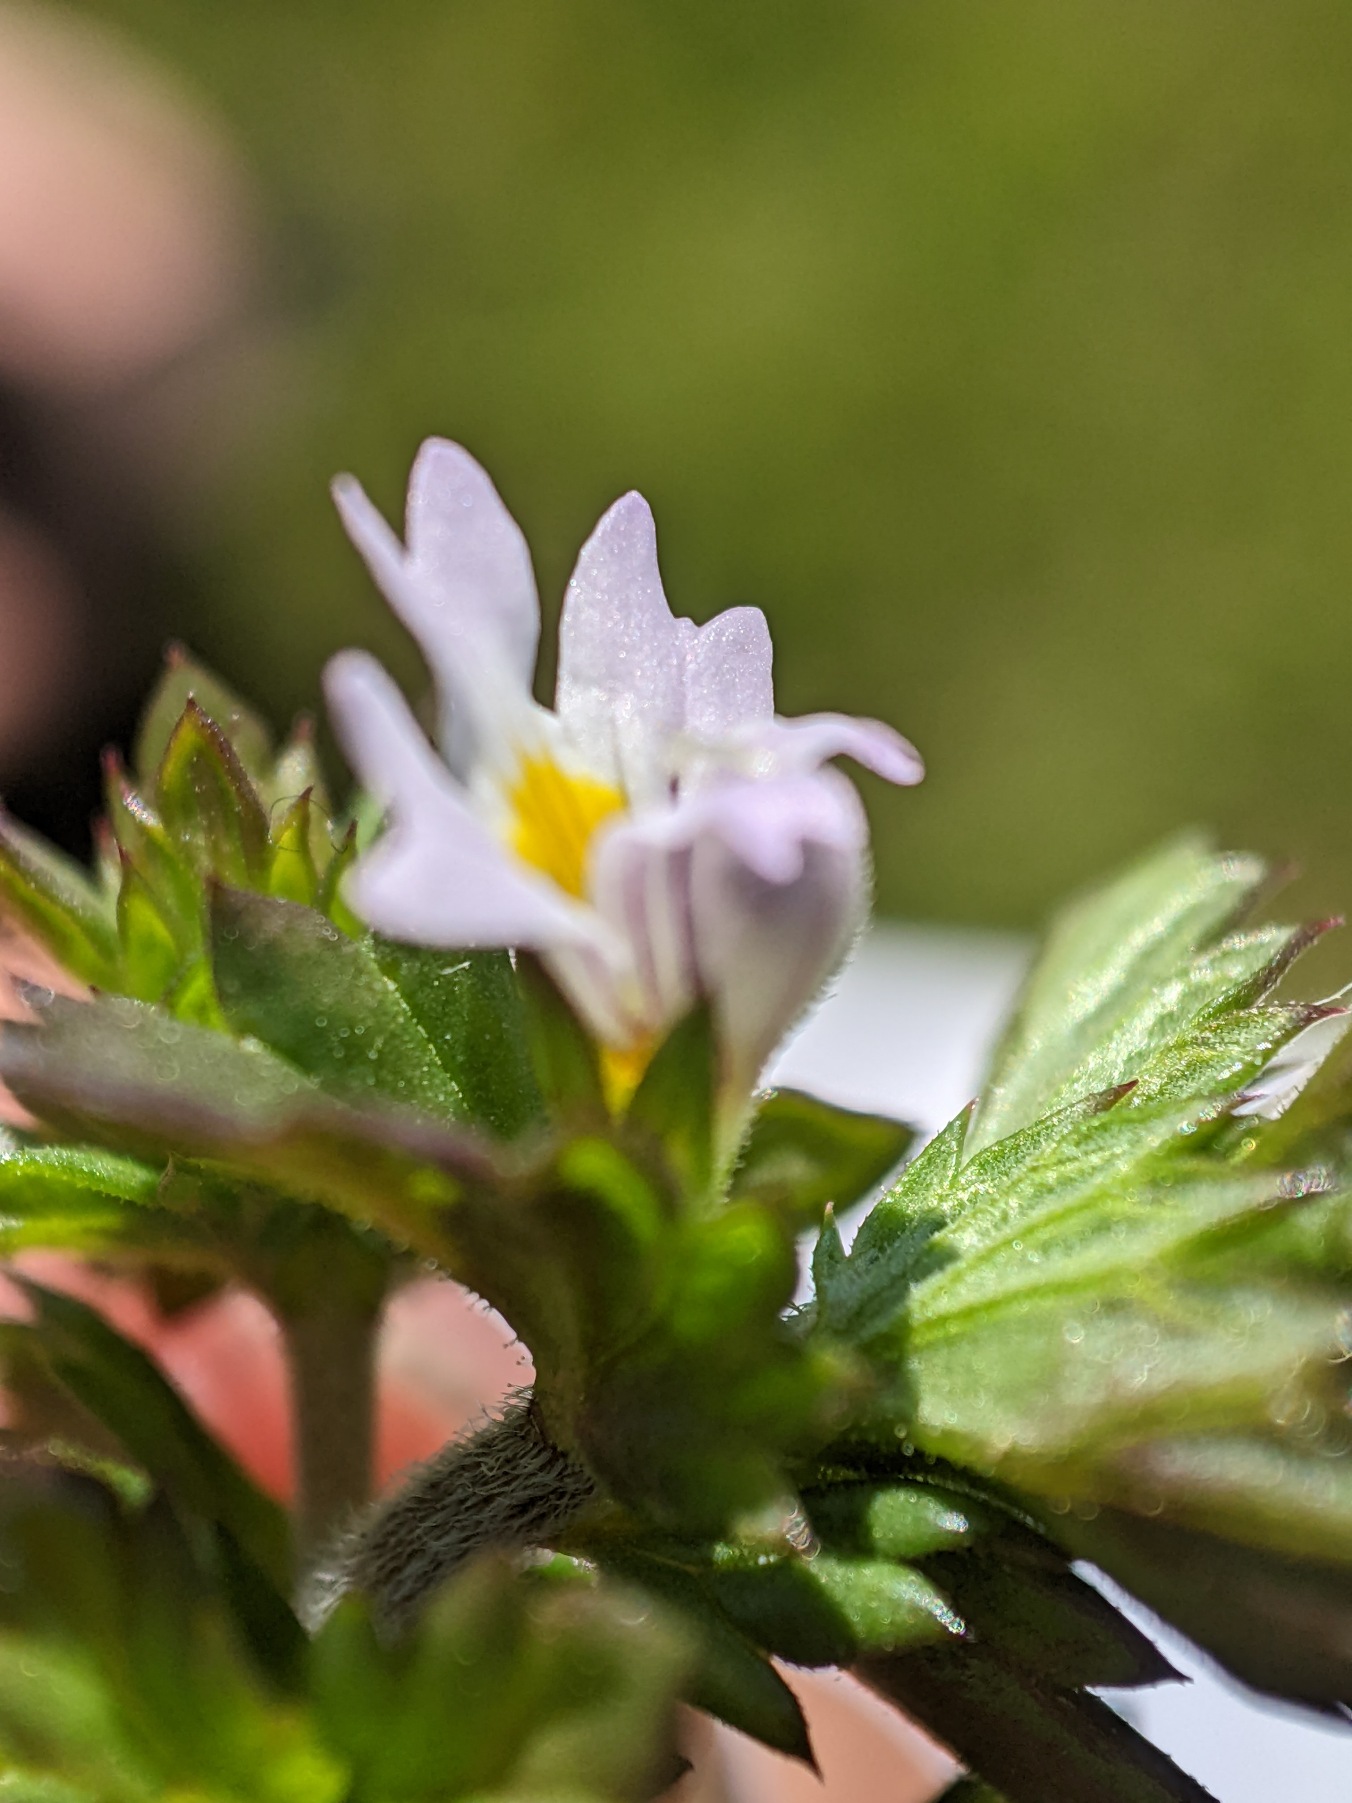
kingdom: Plantae
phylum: Tracheophyta
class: Magnoliopsida
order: Lamiales
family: Orobanchaceae
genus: Euphrasia
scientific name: Euphrasia vernalis
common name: Kirtel-øjentrøst
